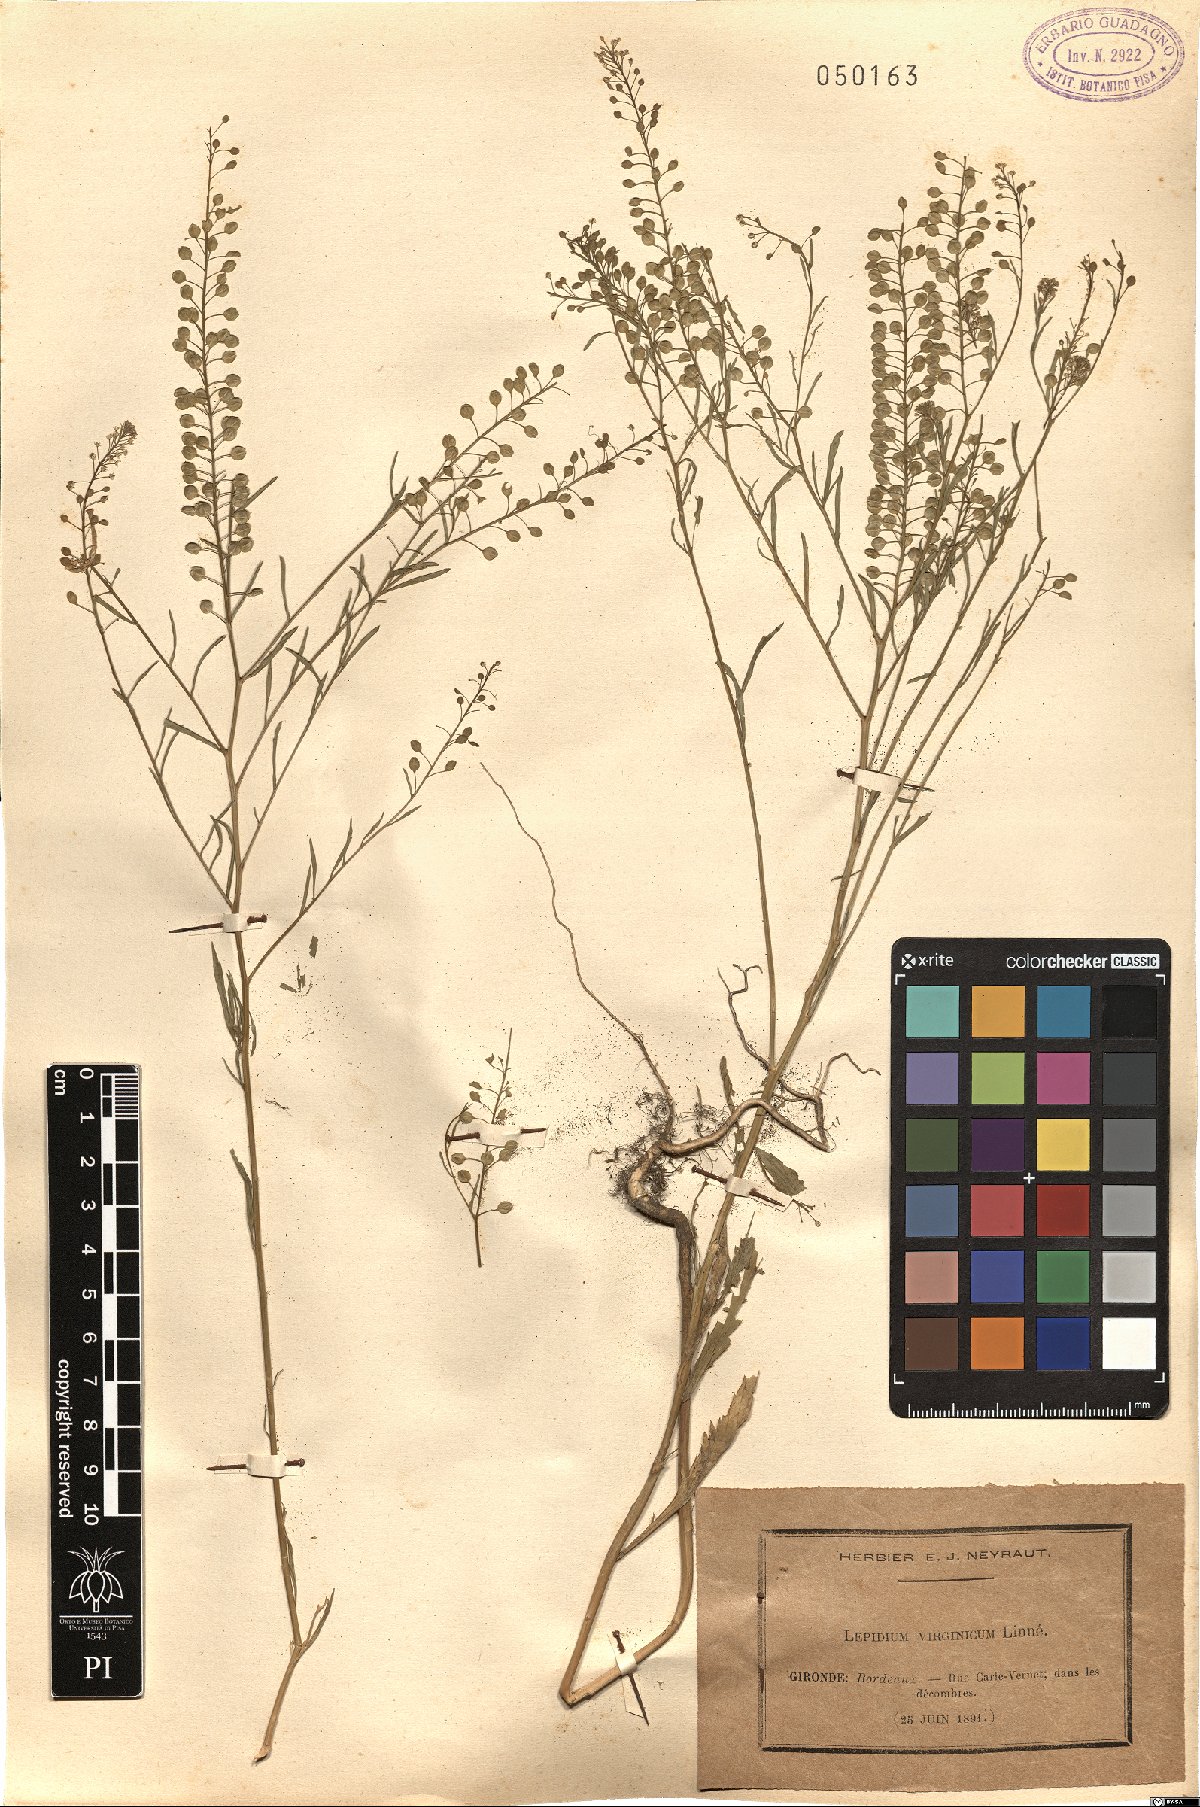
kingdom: Plantae
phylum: Tracheophyta
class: Magnoliopsida
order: Brassicales
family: Brassicaceae
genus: Lepidium
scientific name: Lepidium virginicum
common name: Least pepperwort
